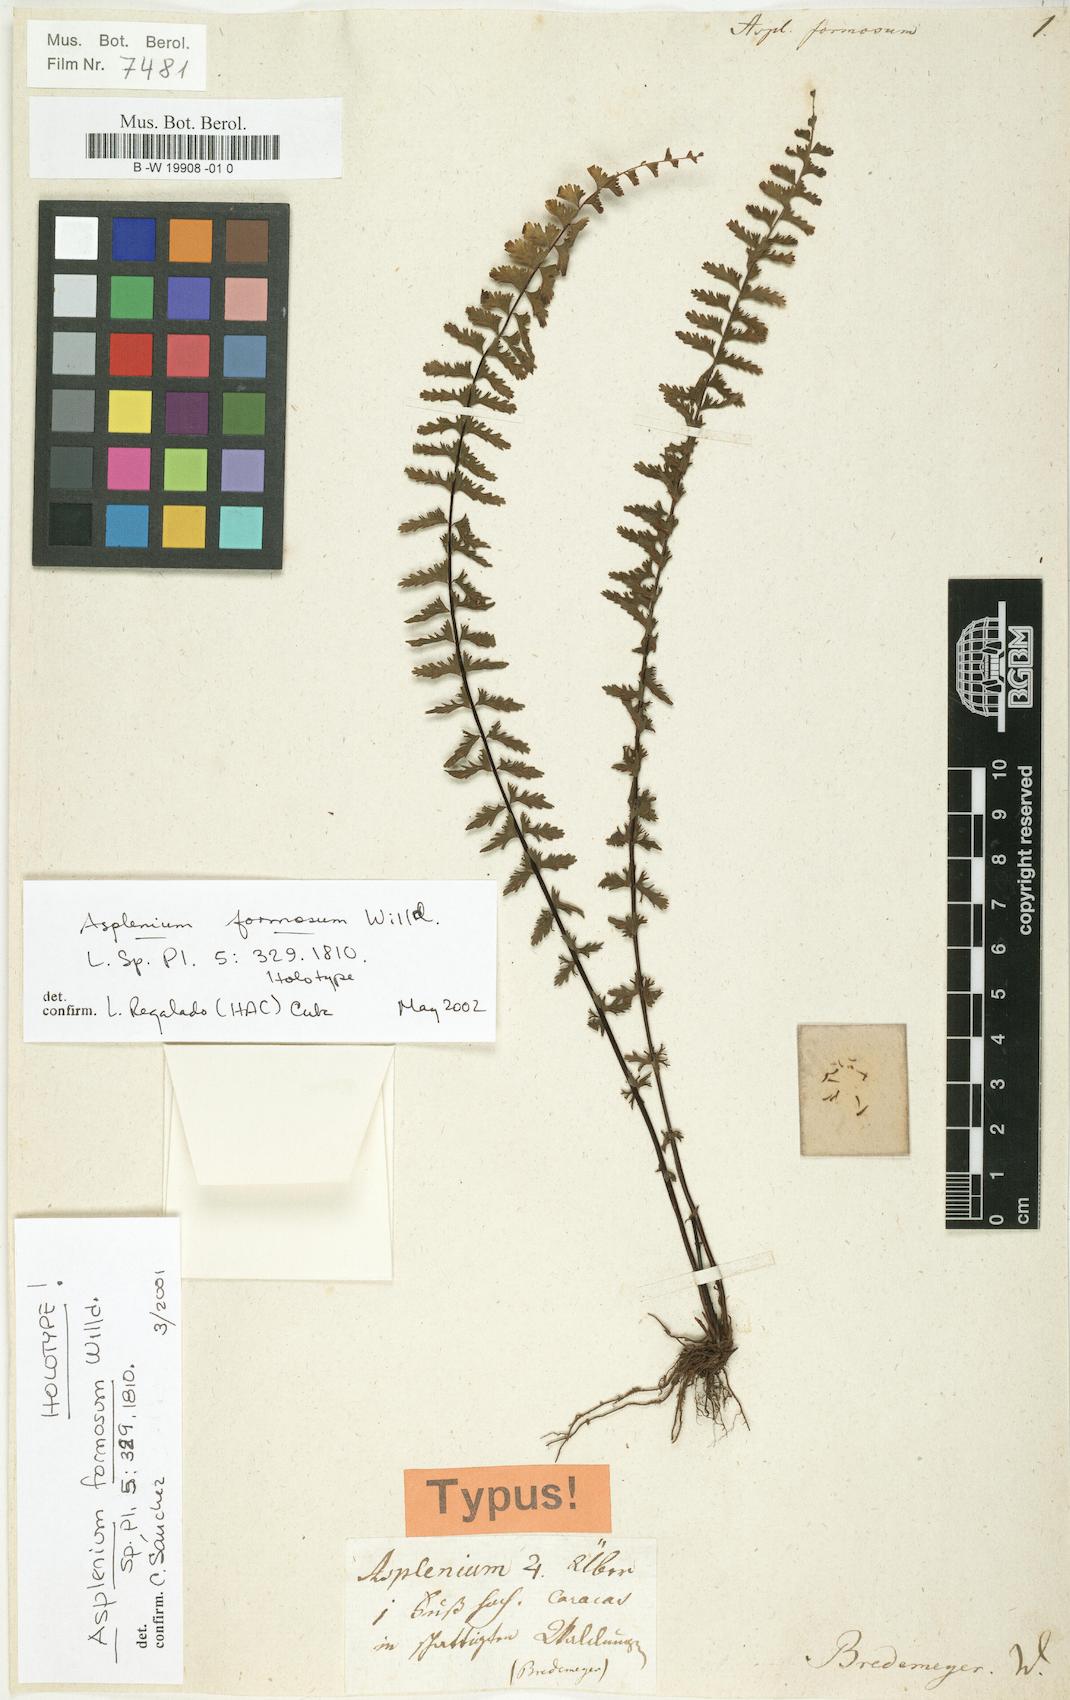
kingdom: Plantae
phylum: Tracheophyta
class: Polypodiopsida
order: Polypodiales
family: Aspleniaceae
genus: Asplenium
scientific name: Asplenium
